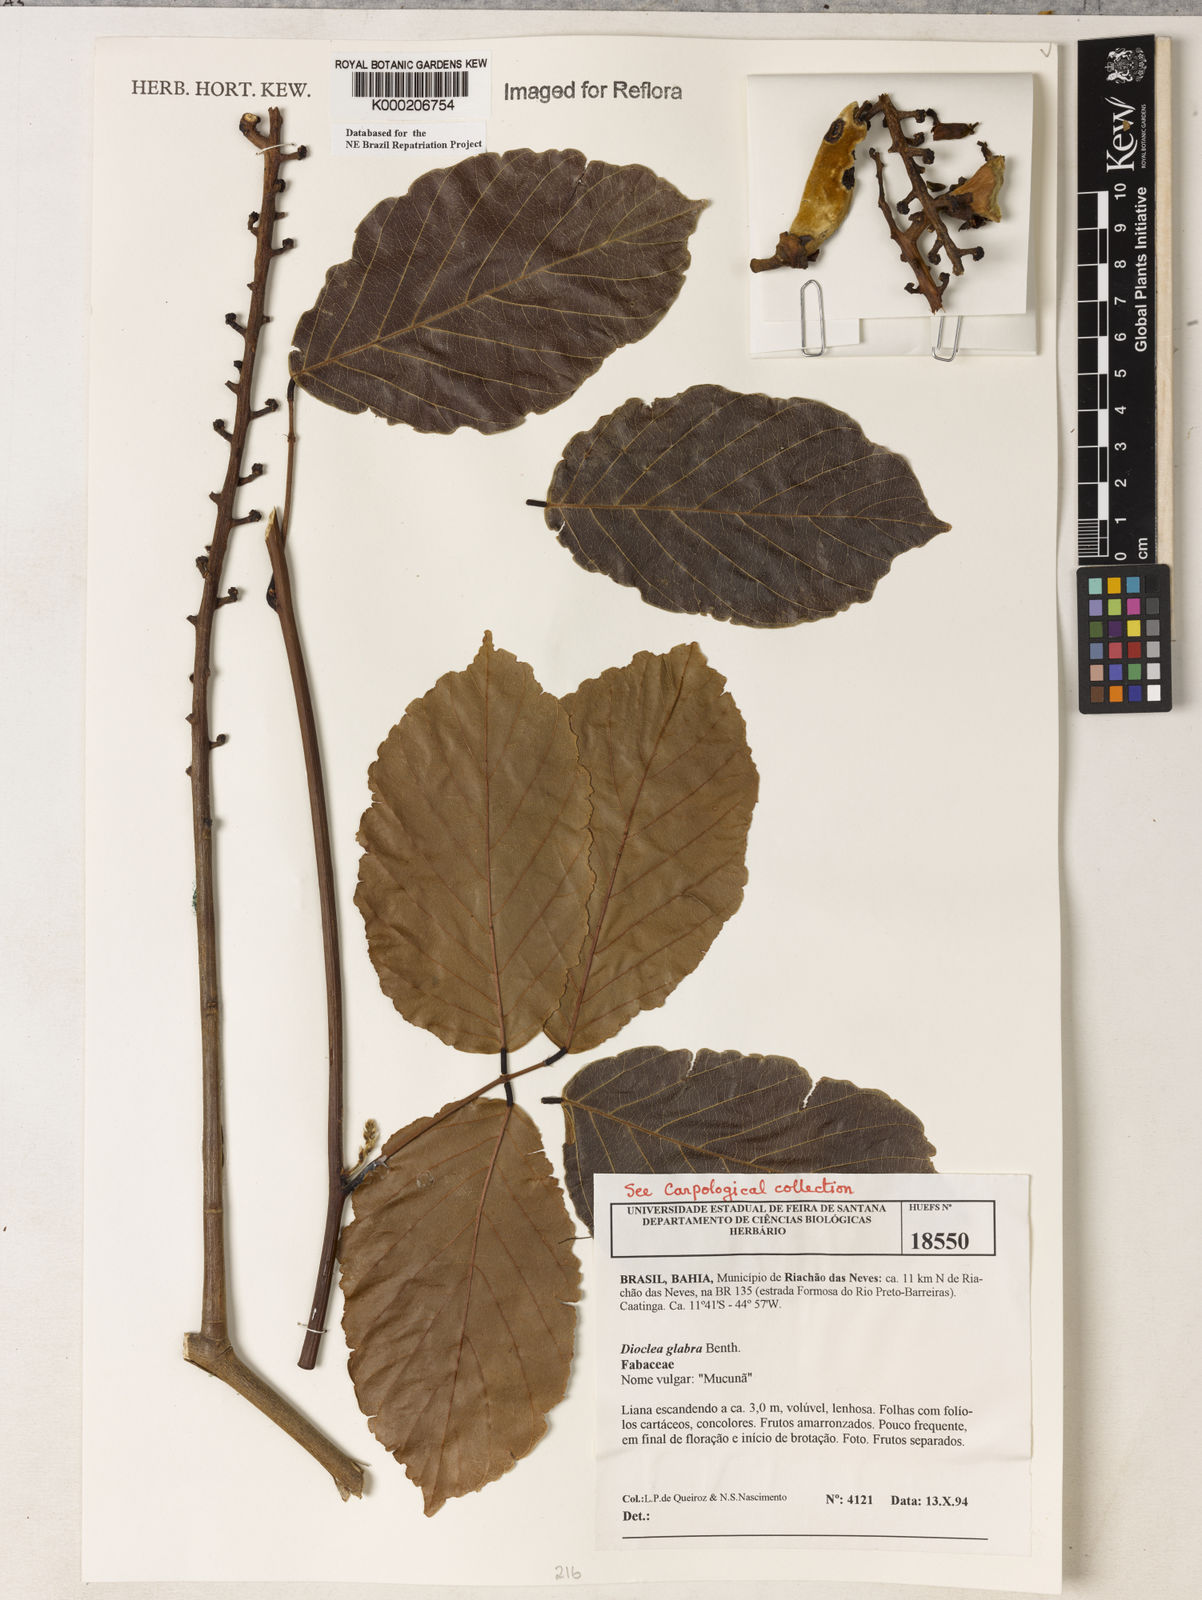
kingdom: Plantae
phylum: Tracheophyta
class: Magnoliopsida
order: Fabales
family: Fabaceae
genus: Macropsychanthus
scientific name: Macropsychanthus glaber
